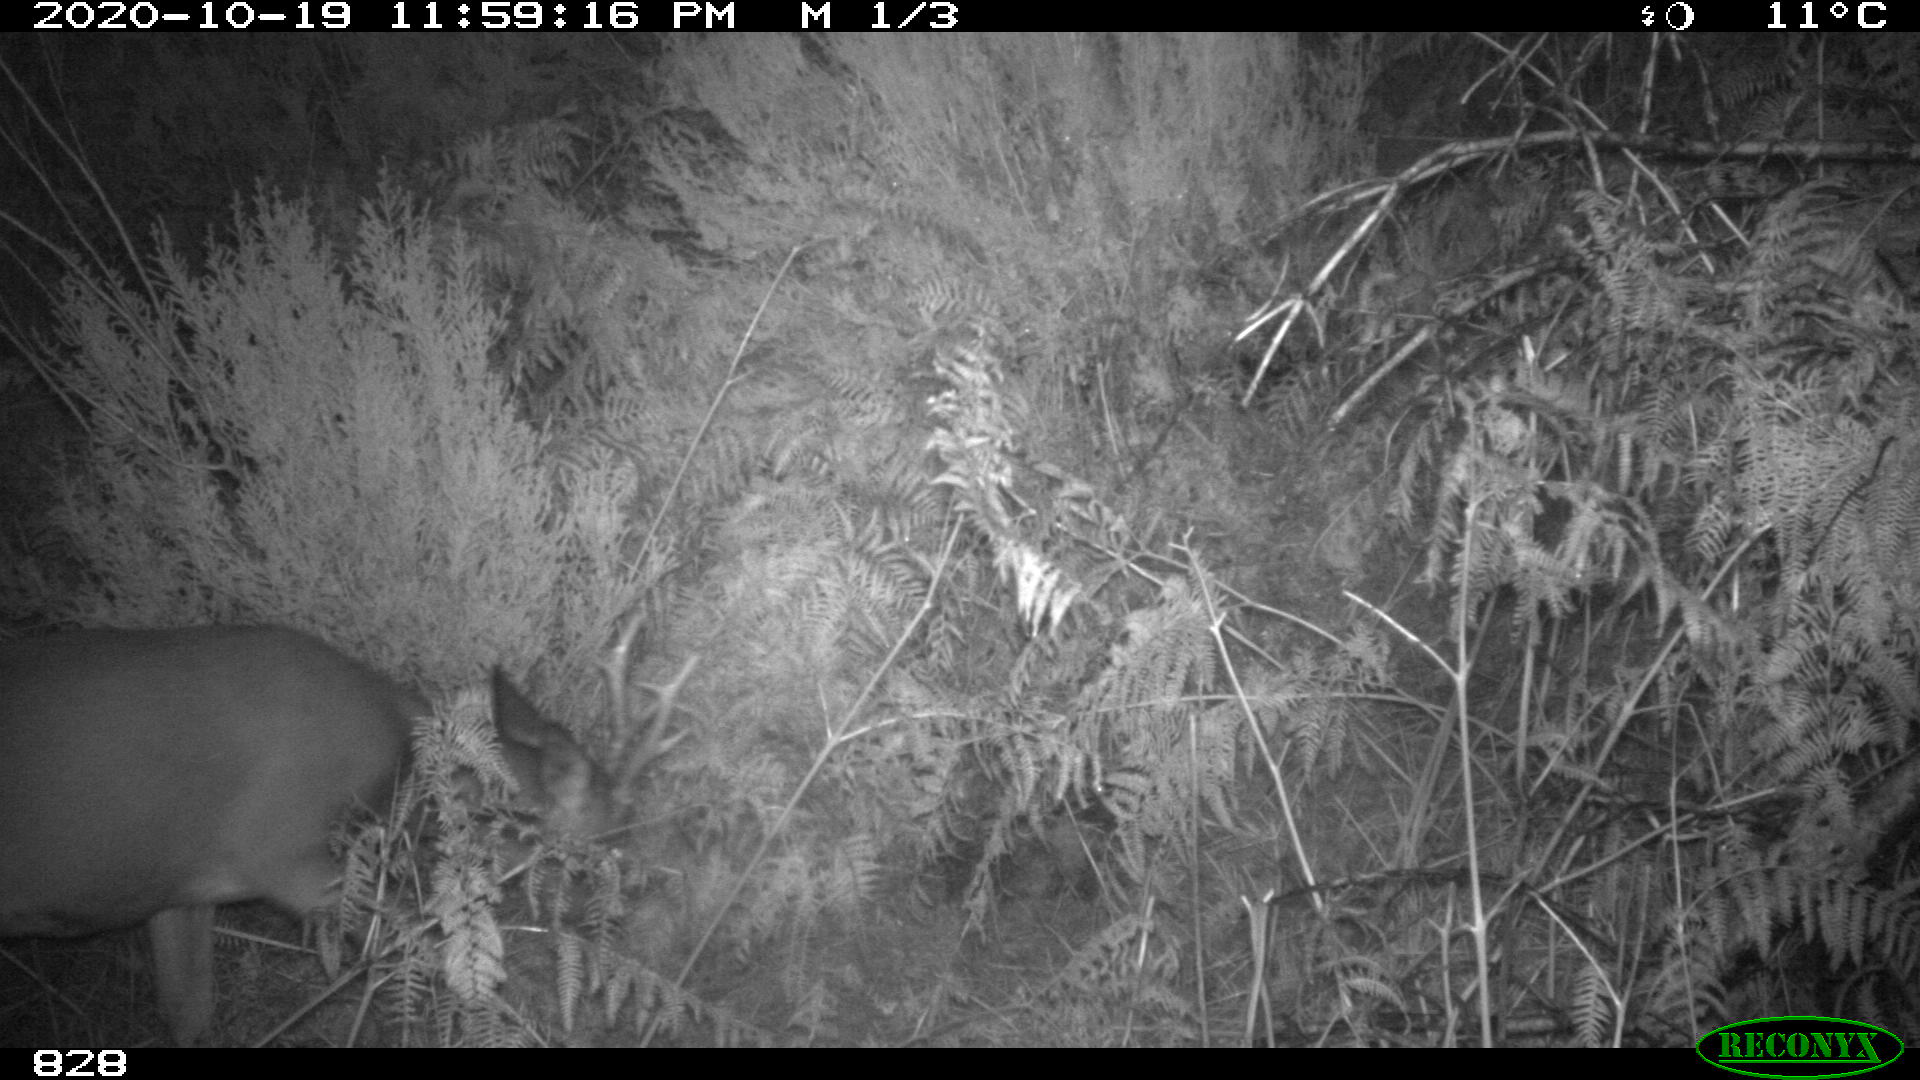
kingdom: Animalia
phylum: Chordata
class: Mammalia
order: Artiodactyla
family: Cervidae
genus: Capreolus
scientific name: Capreolus capreolus
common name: Western roe deer
